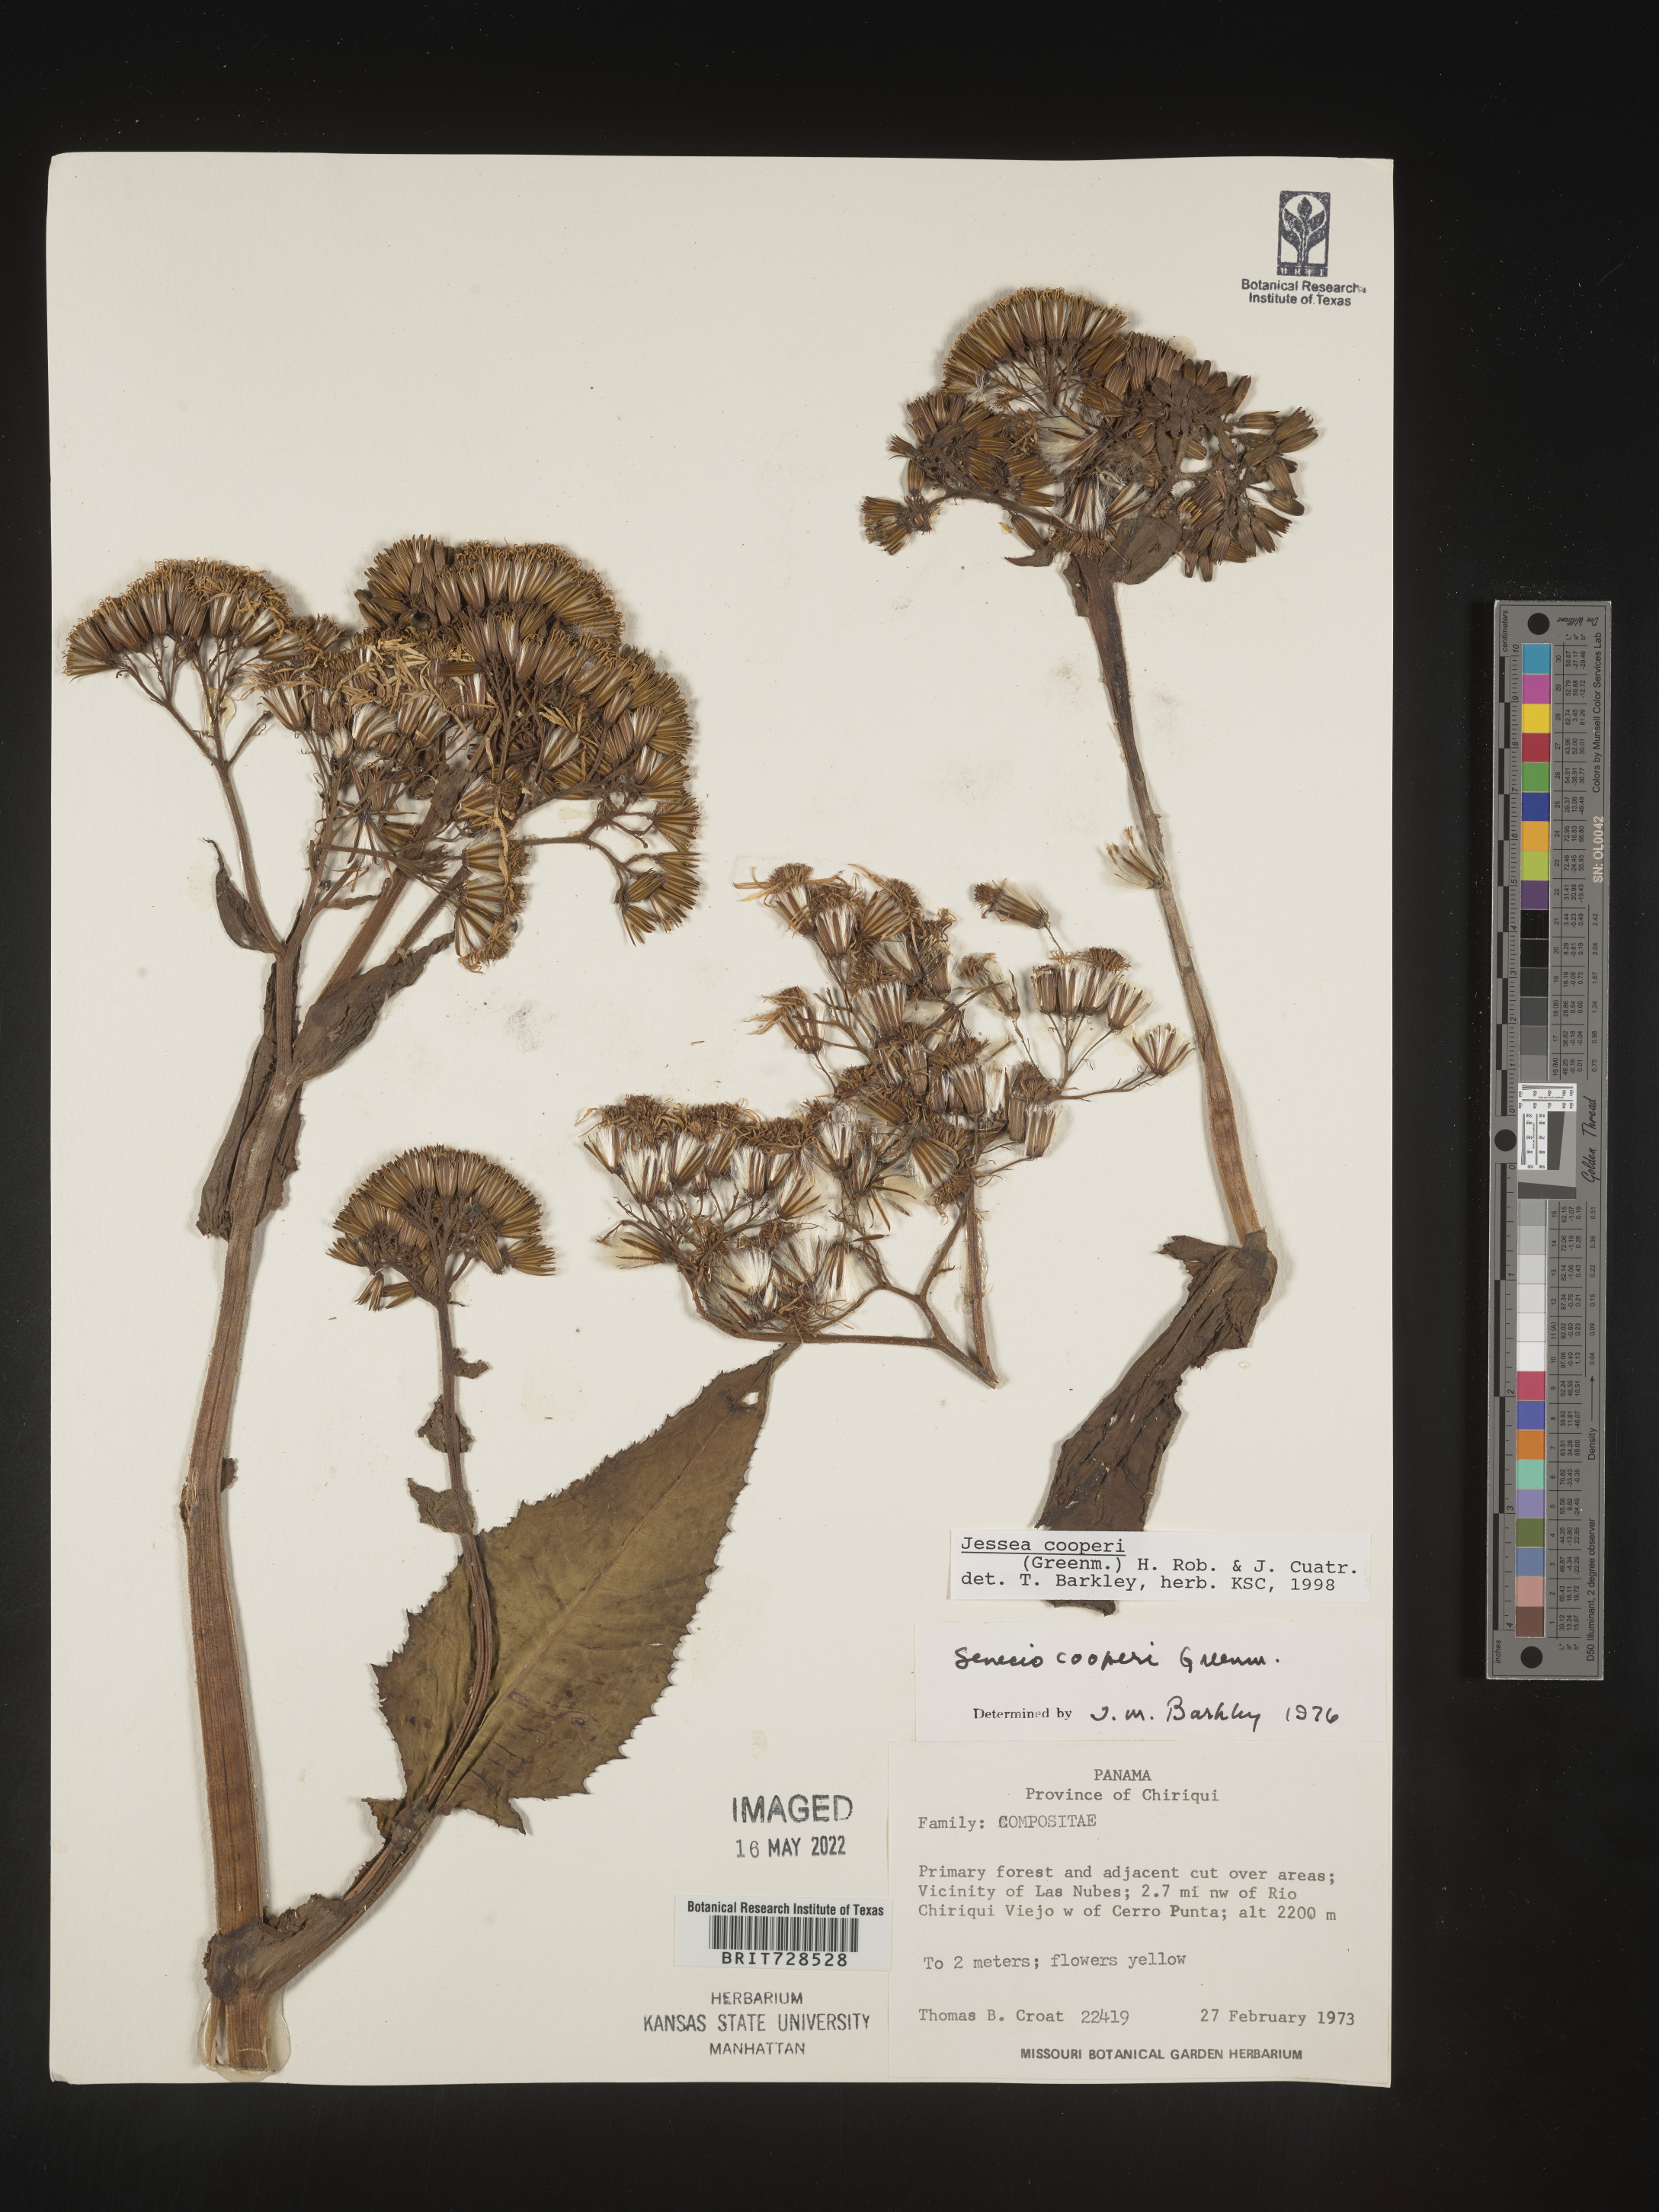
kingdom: Plantae
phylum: Tracheophyta
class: Magnoliopsida
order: Asterales
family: Asteraceae
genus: Jessea
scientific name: Jessea
